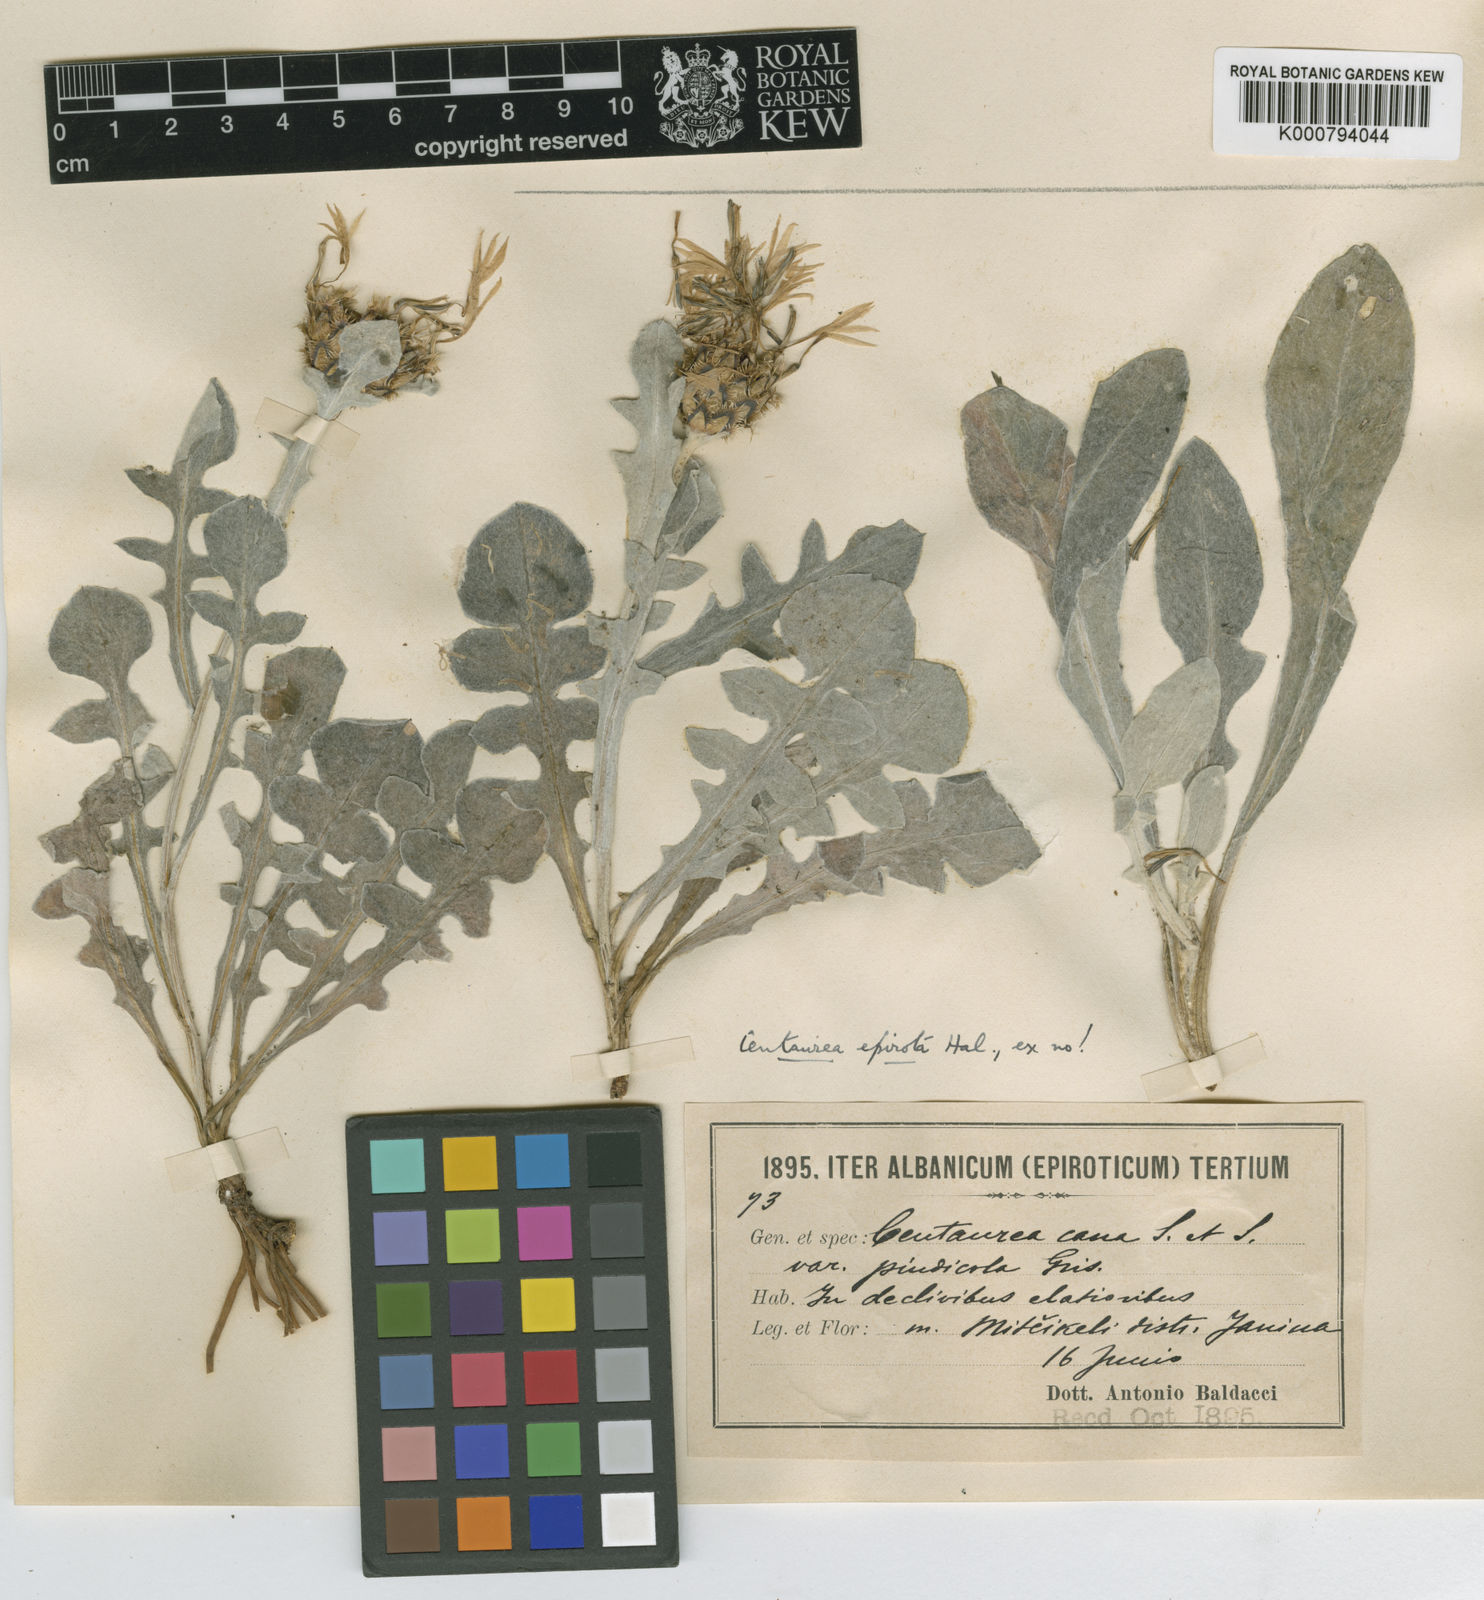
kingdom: Plantae
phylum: Tracheophyta
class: Magnoliopsida
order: Asterales
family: Asteraceae
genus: Centaurea
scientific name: Centaurea
